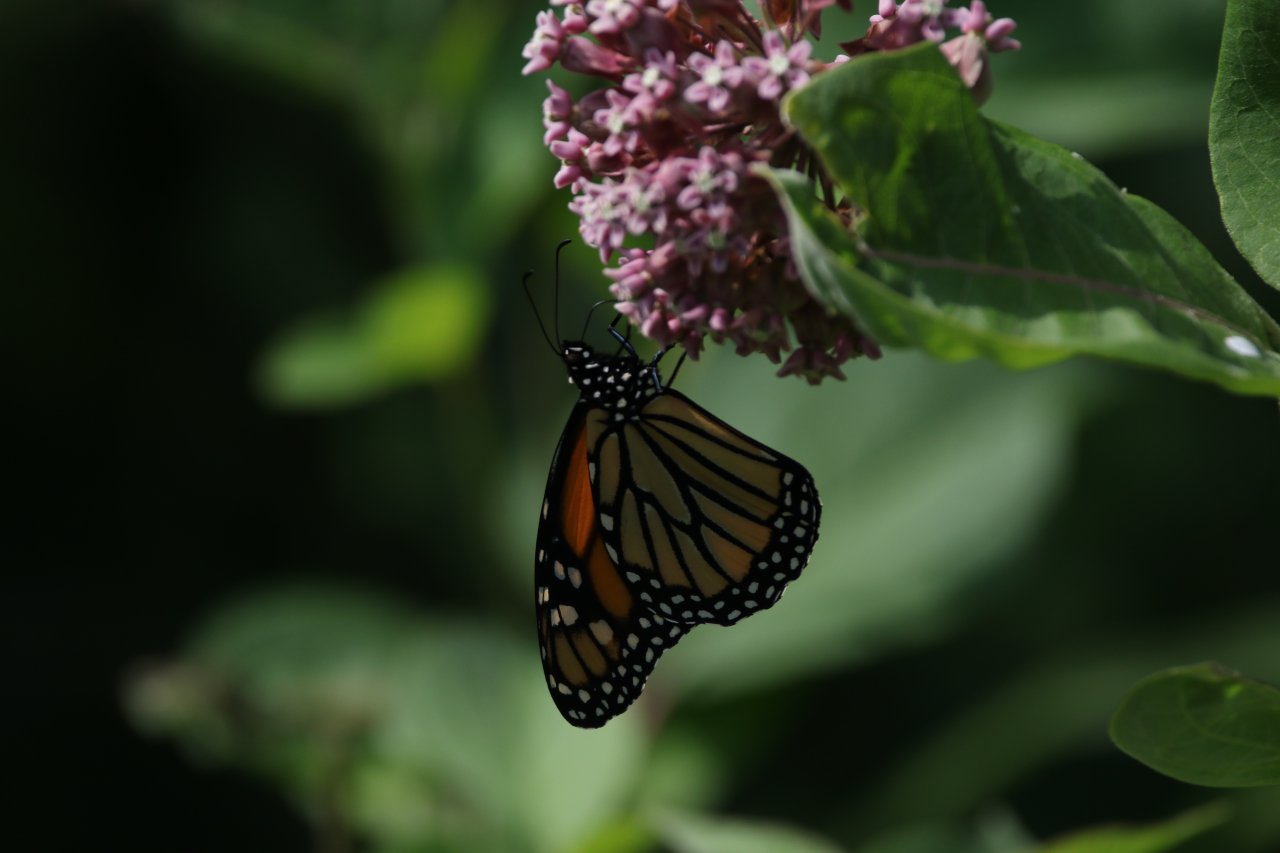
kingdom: Animalia
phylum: Arthropoda
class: Insecta
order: Lepidoptera
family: Nymphalidae
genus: Danaus
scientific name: Danaus plexippus
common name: Monarch
